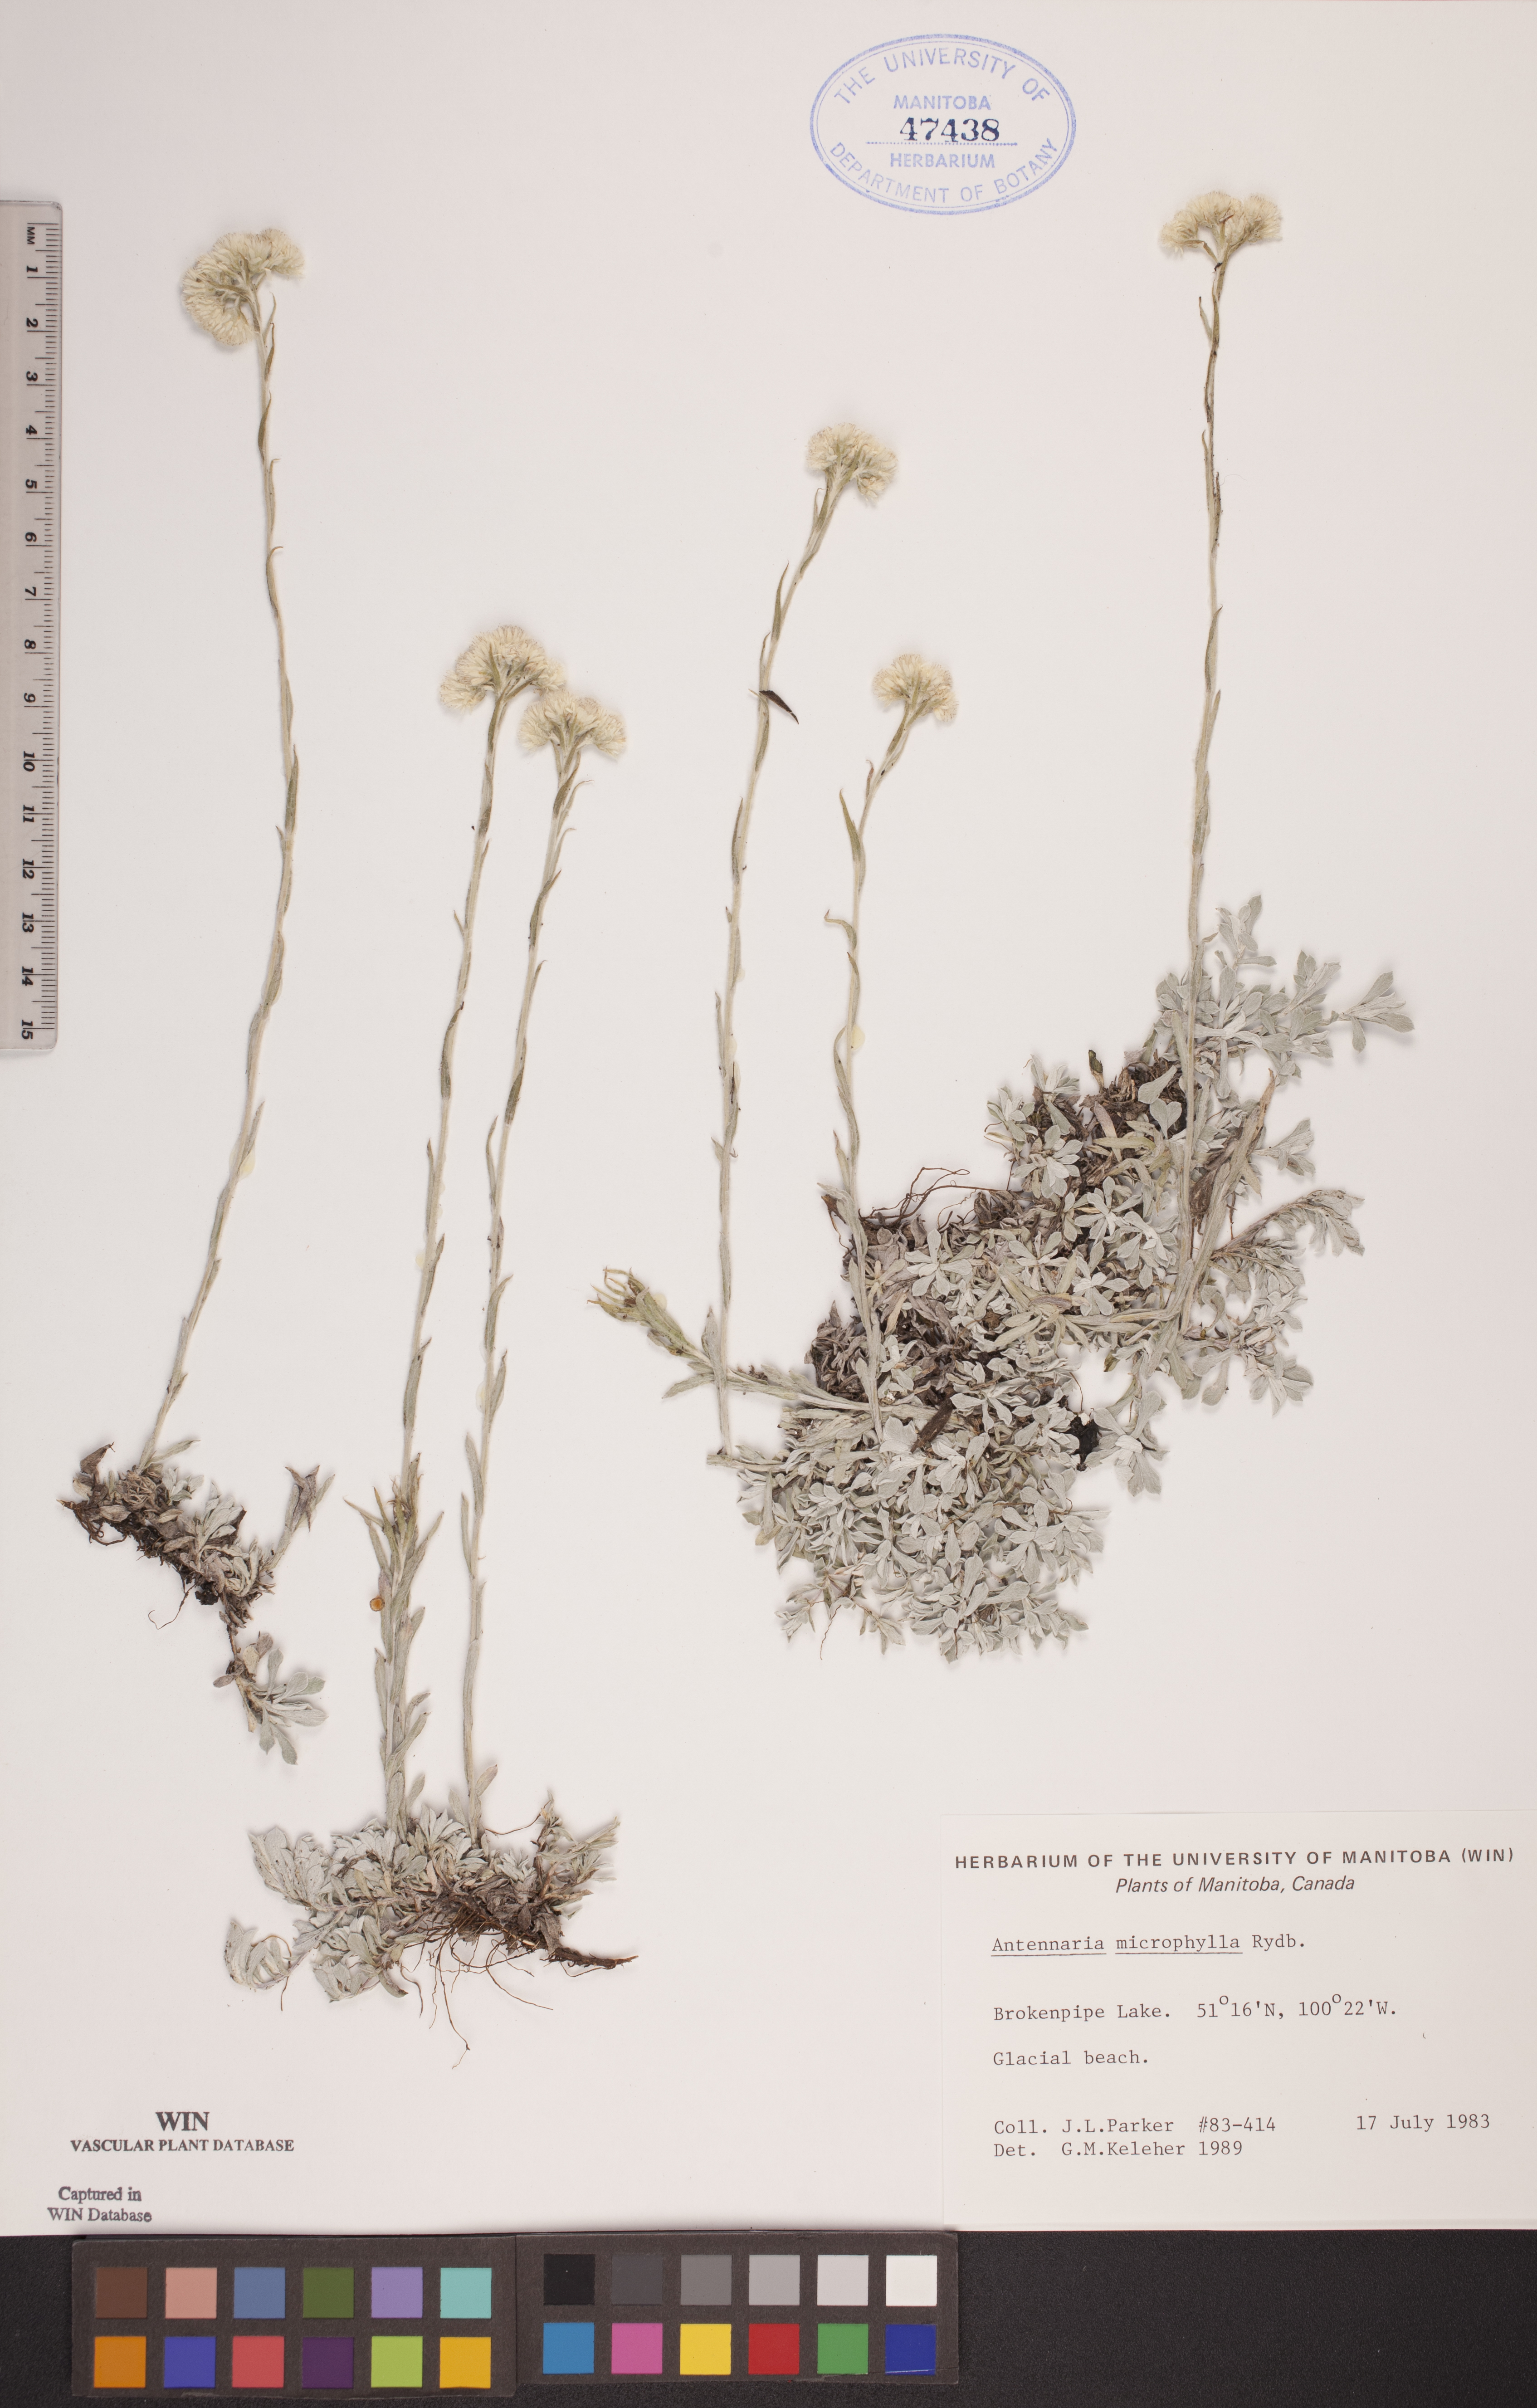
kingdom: Plantae
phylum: Tracheophyta
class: Magnoliopsida
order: Asterales
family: Asteraceae
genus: Antennaria
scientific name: Antennaria microphylla
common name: Littleleaf pussytoes
